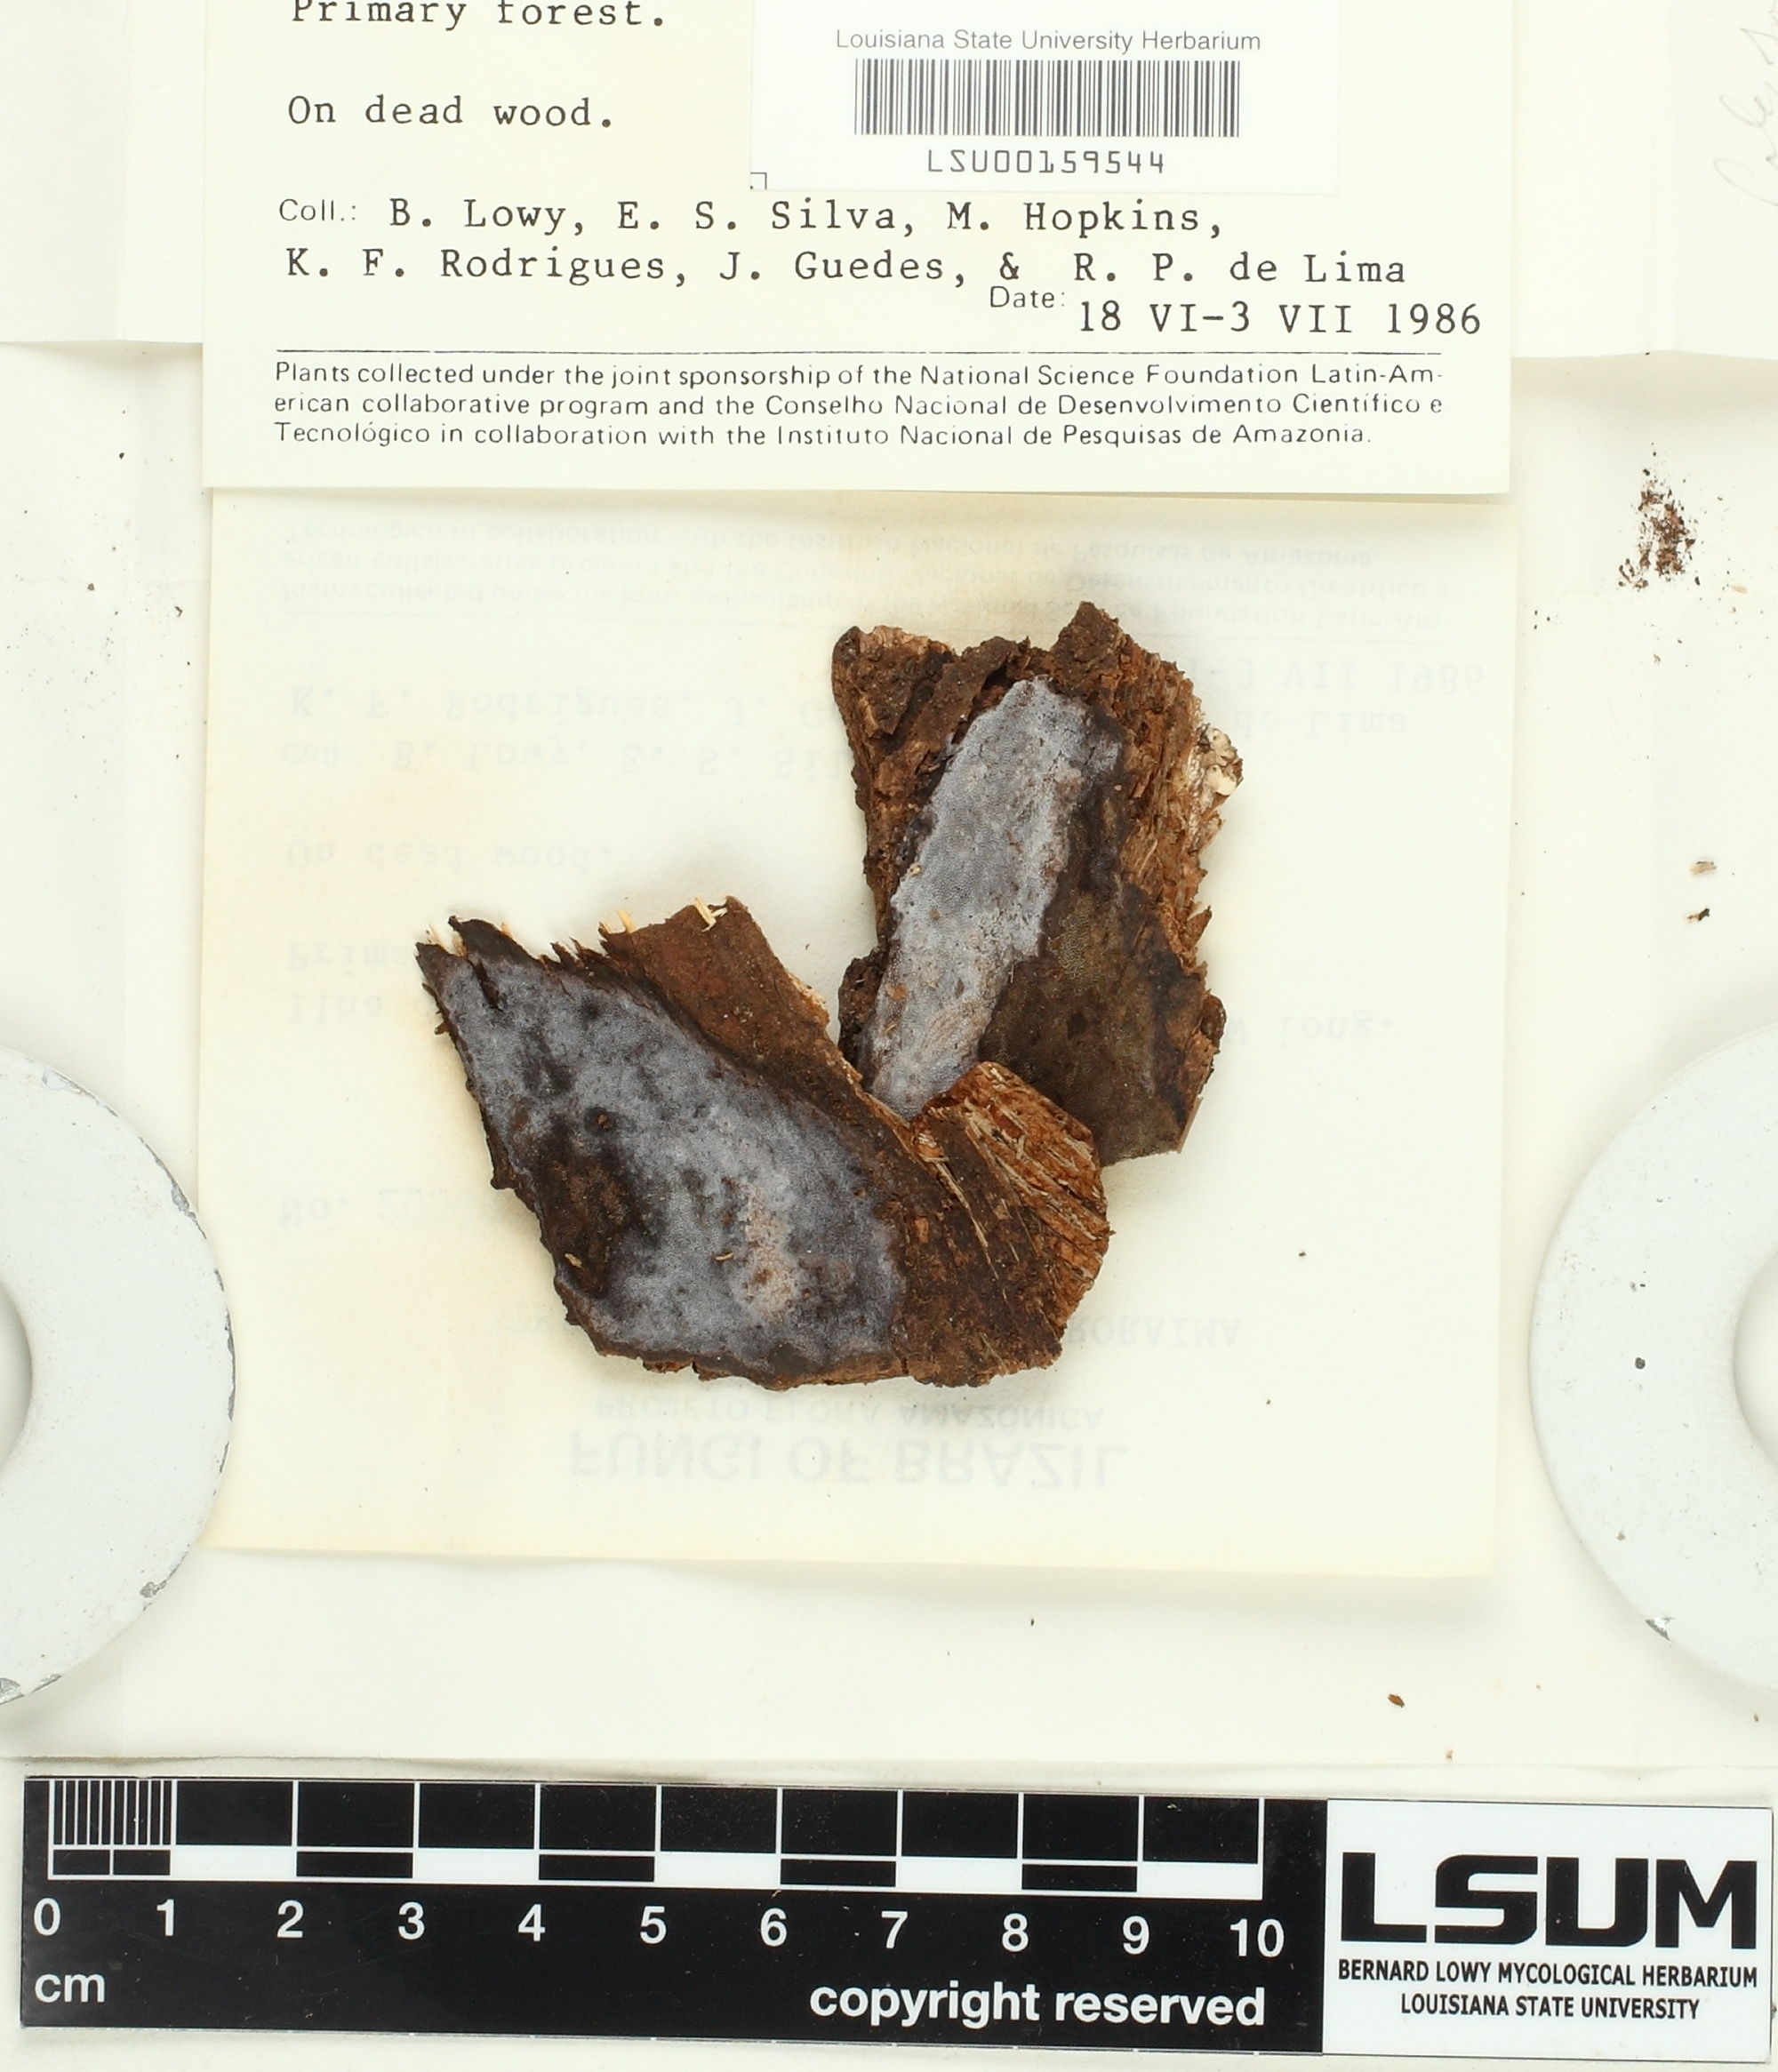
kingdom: Fungi
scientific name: Fungi
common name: Fungi
